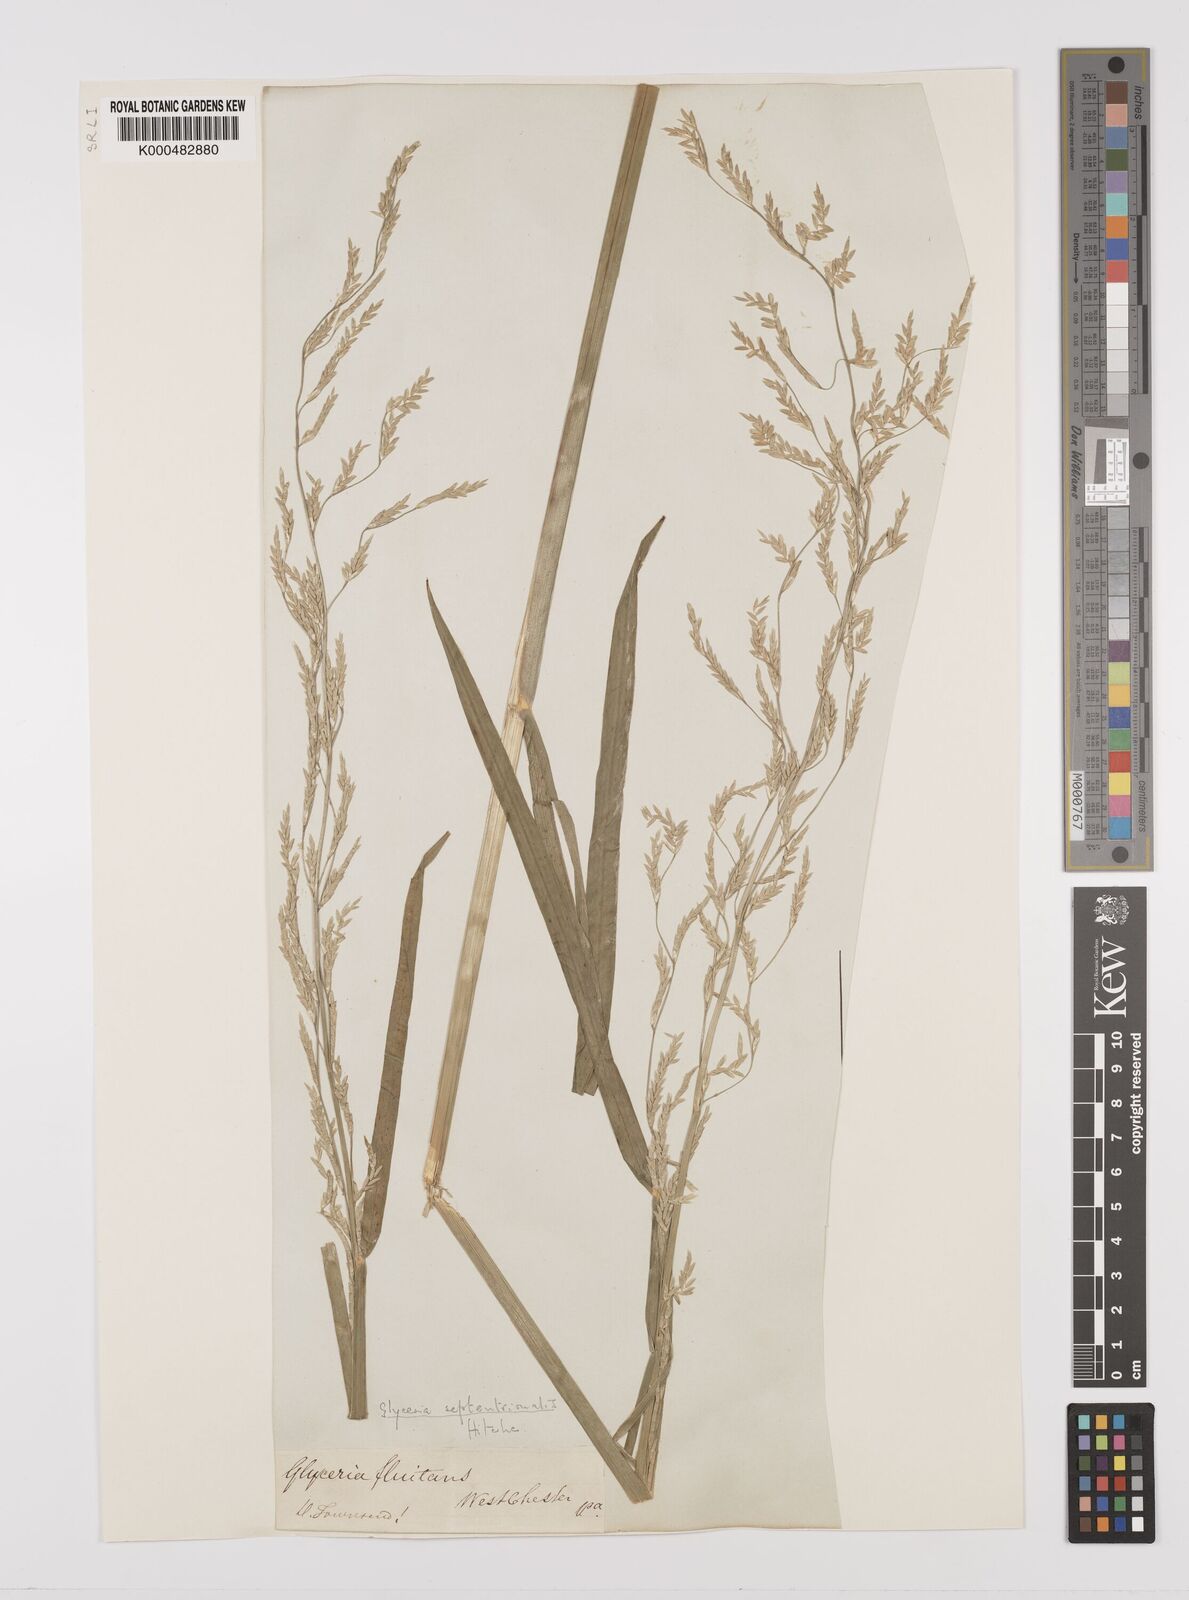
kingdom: Plantae
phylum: Tracheophyta
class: Liliopsida
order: Poales
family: Poaceae
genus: Glyceria
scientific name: Glyceria septentrionalis
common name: Eastern mannagrass
